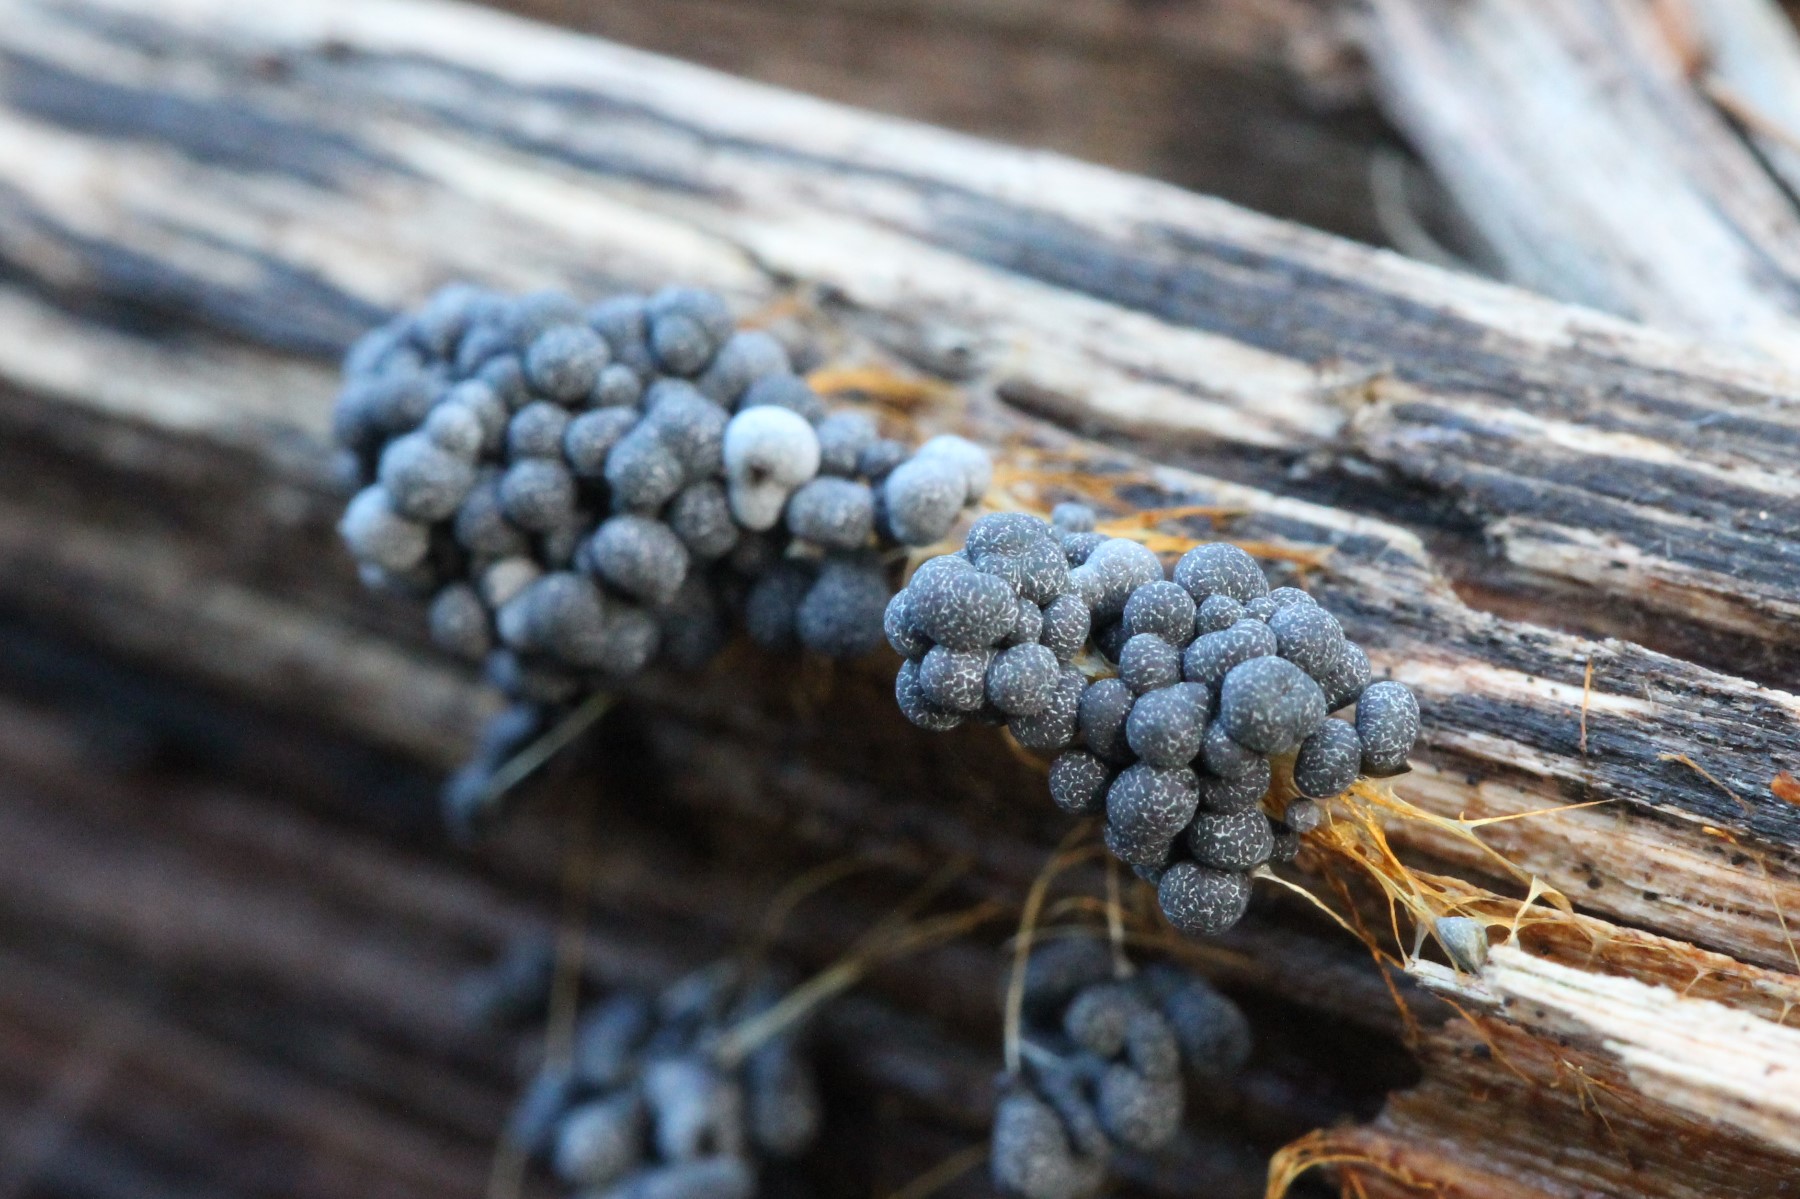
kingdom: Protozoa
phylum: Mycetozoa
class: Myxomycetes
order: Physarales
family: Physaraceae
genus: Badhamia
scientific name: Badhamia utricularis
